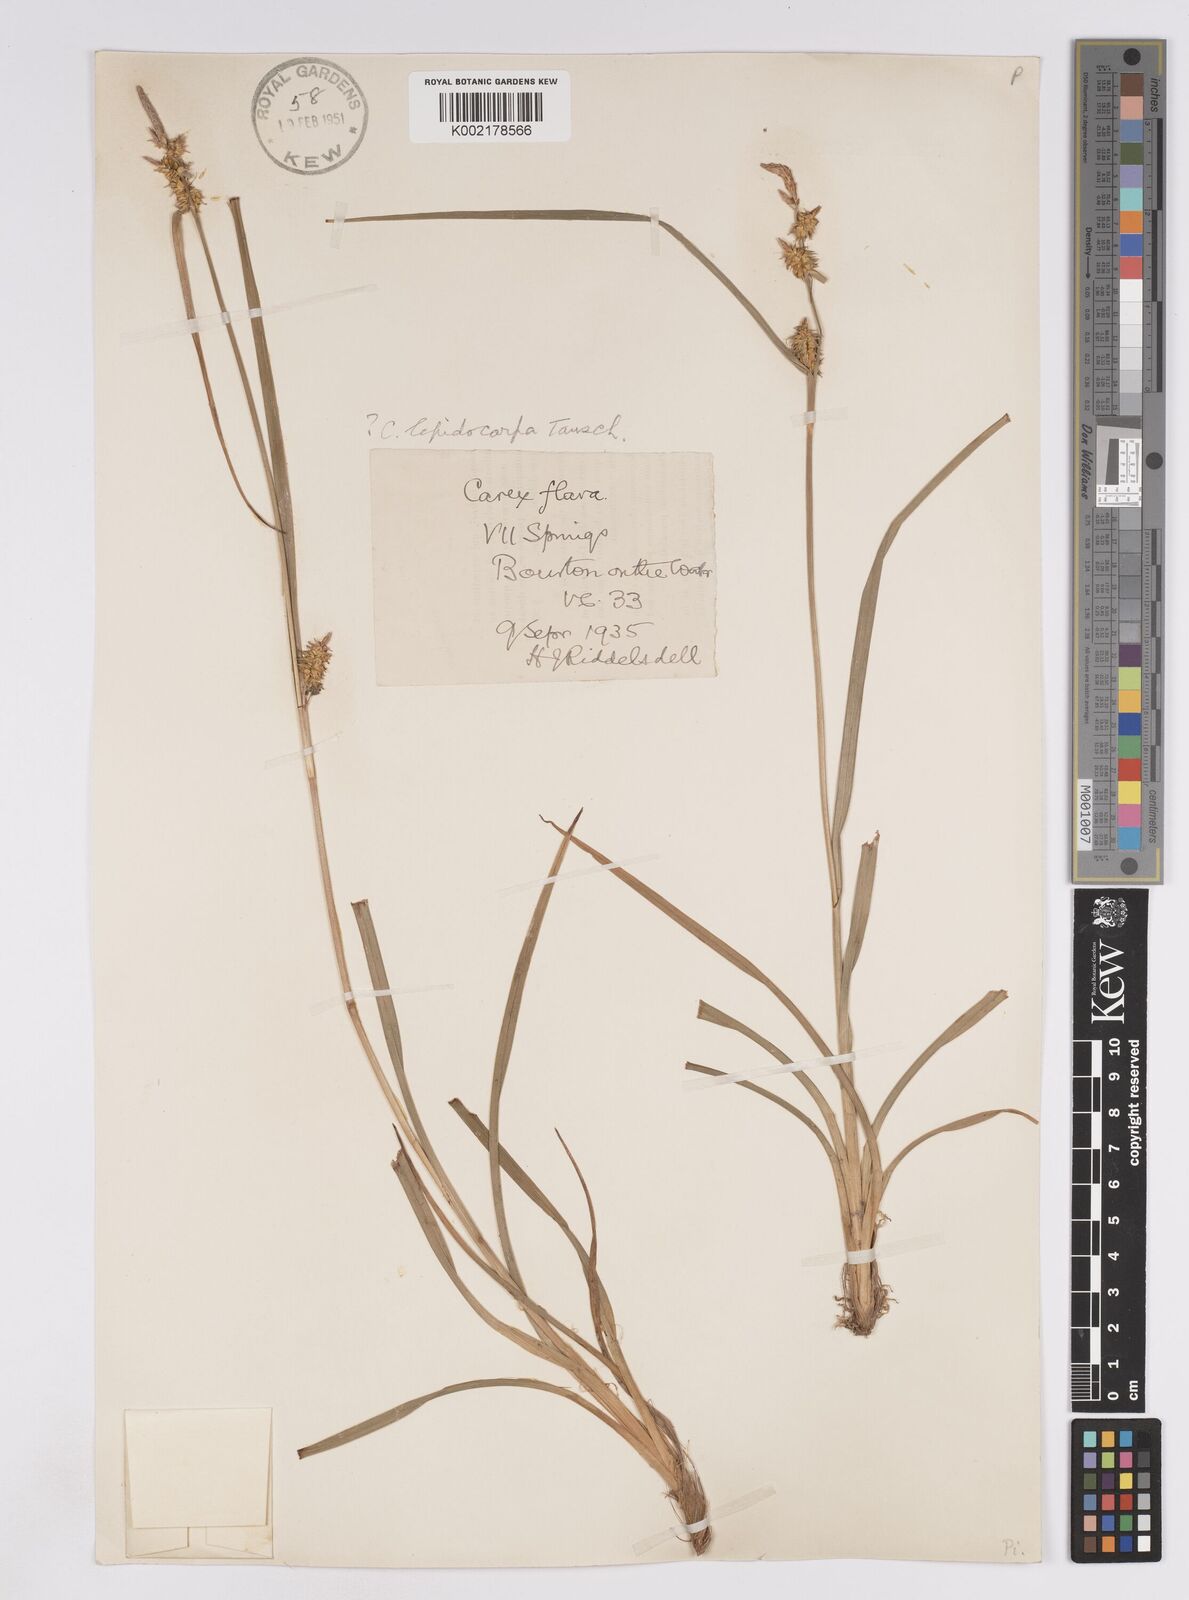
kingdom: Plantae
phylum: Tracheophyta
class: Liliopsida
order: Poales
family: Cyperaceae
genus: Carex
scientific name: Carex lepidocarpa
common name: Long-stalked yellow-sedge
